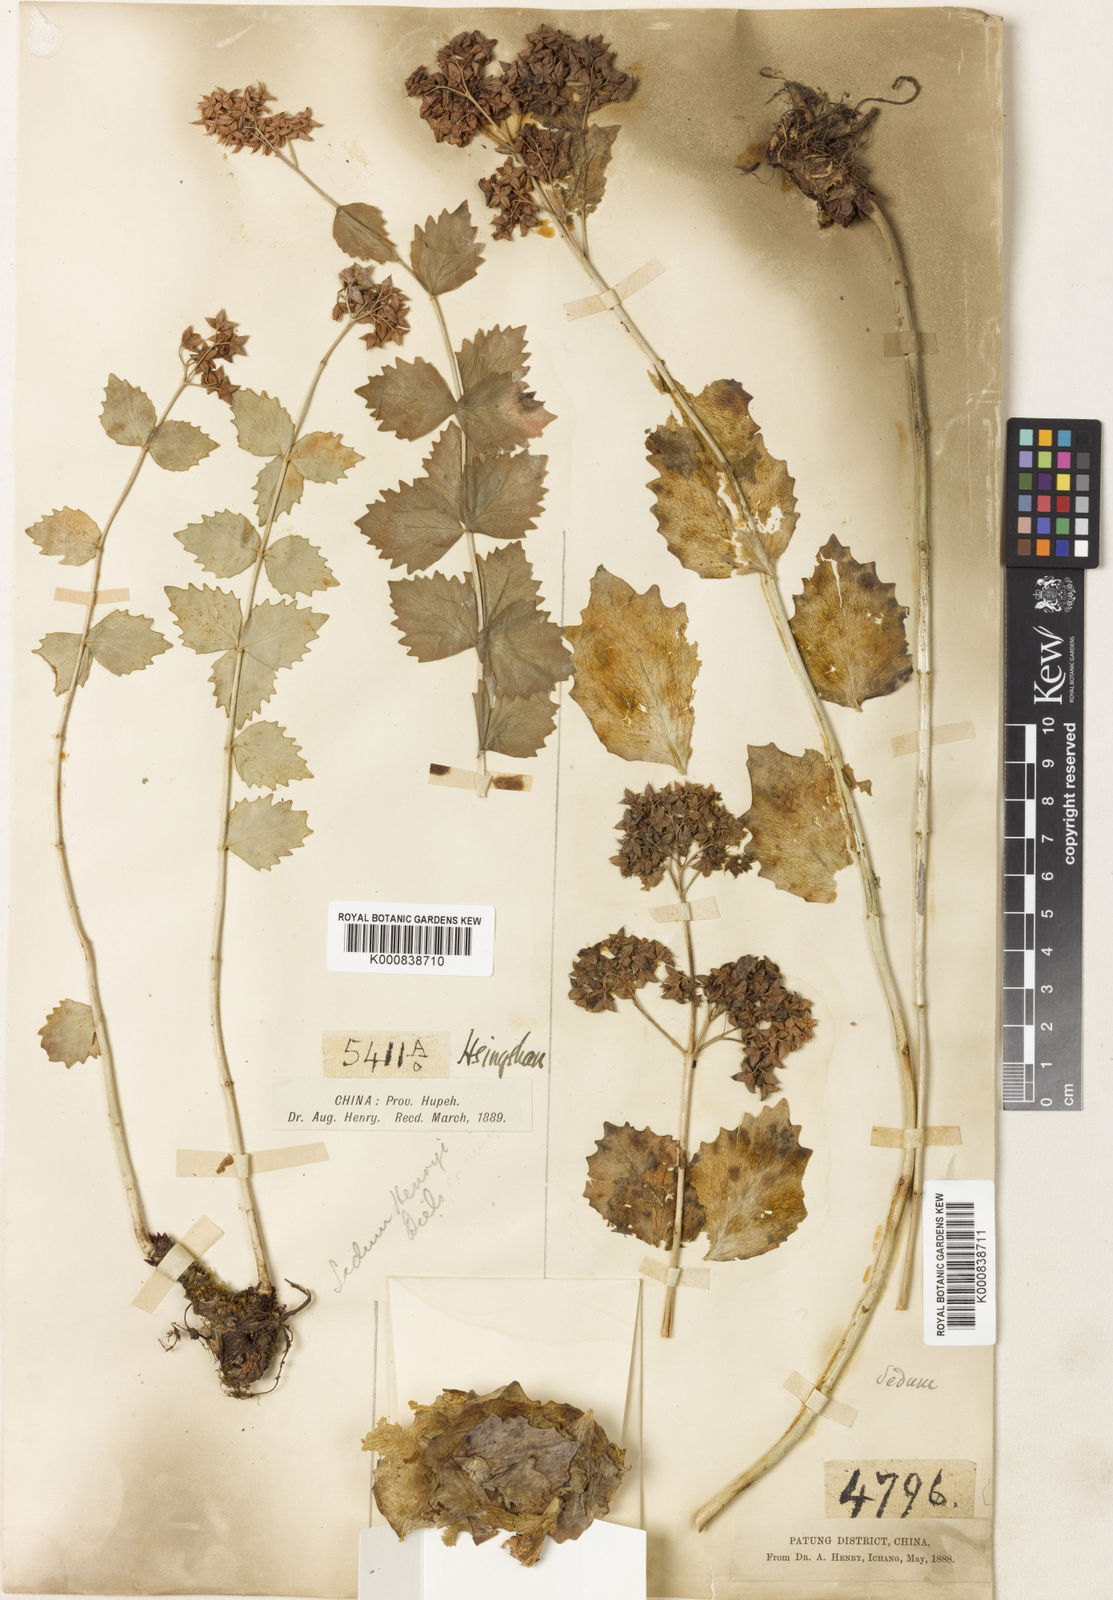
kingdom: Plantae
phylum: Tracheophyta
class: Magnoliopsida
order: Saxifragales
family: Crassulaceae
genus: Rhodiola
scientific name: Rhodiola yunnanensis
